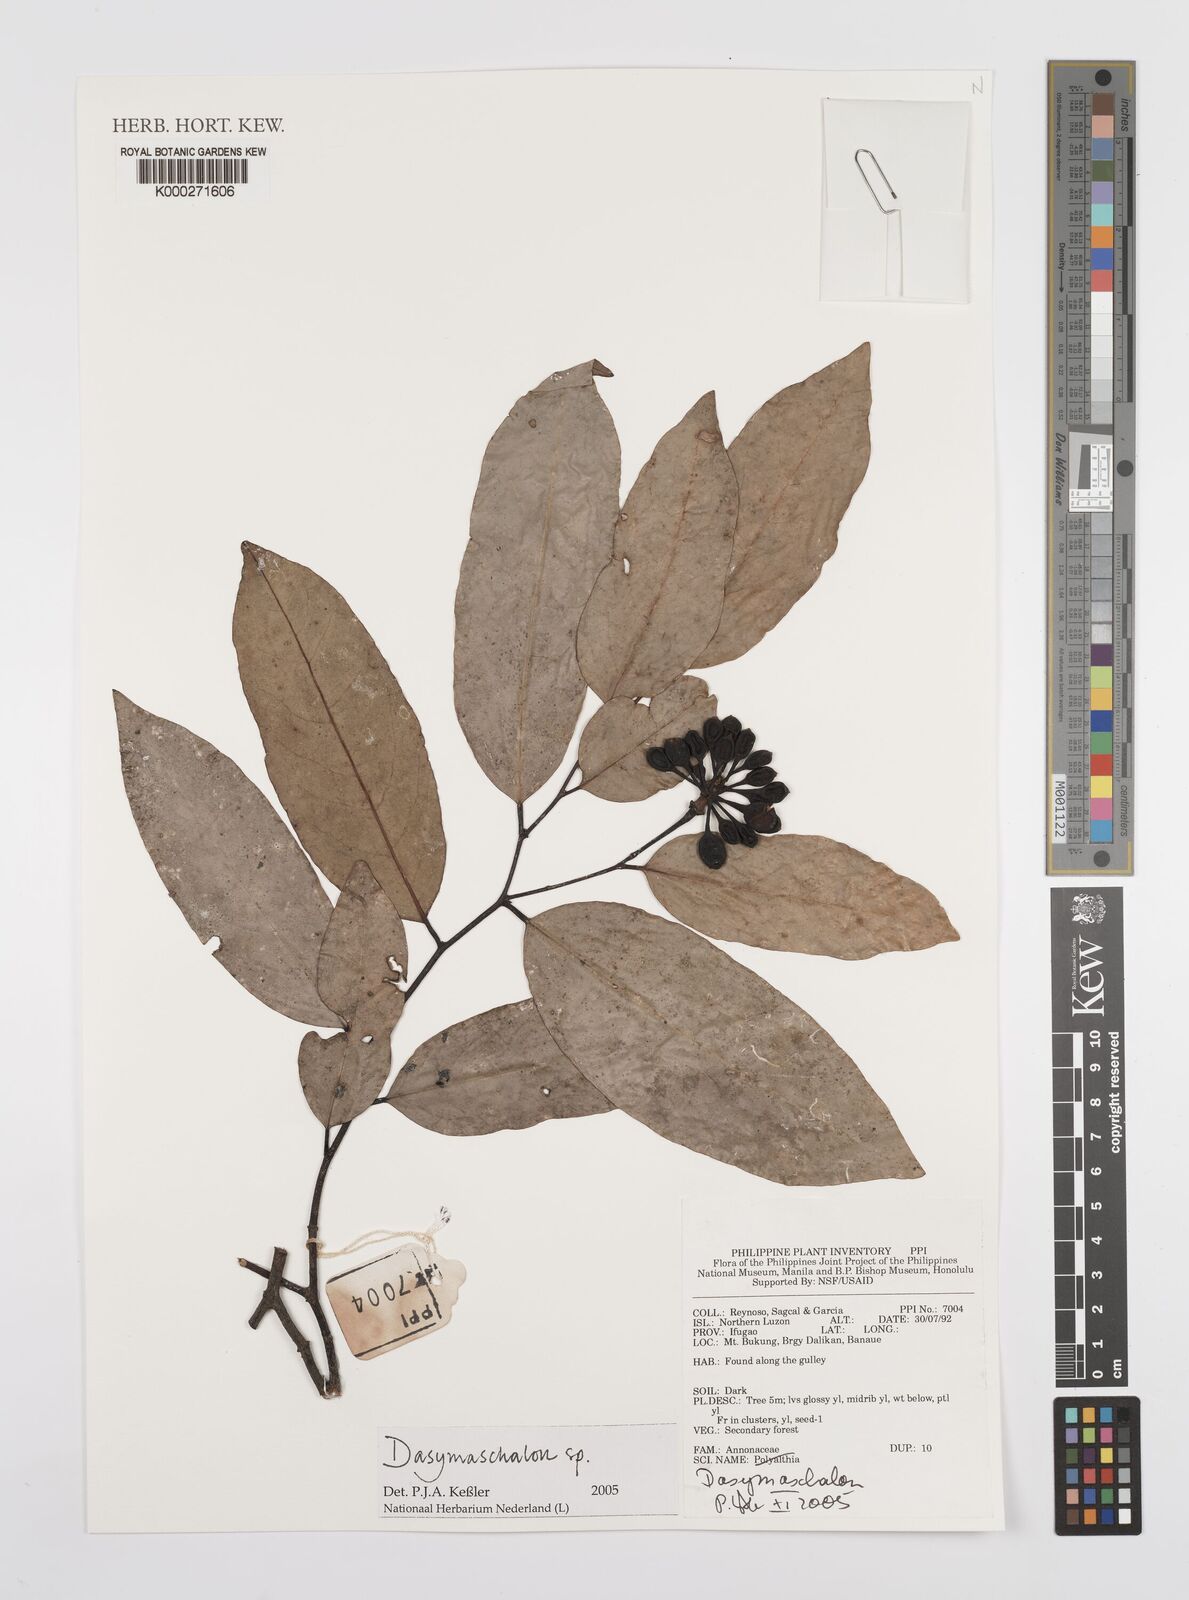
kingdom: Plantae
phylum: Tracheophyta
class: Magnoliopsida
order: Magnoliales
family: Annonaceae
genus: Dasymaschalon
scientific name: Dasymaschalon
